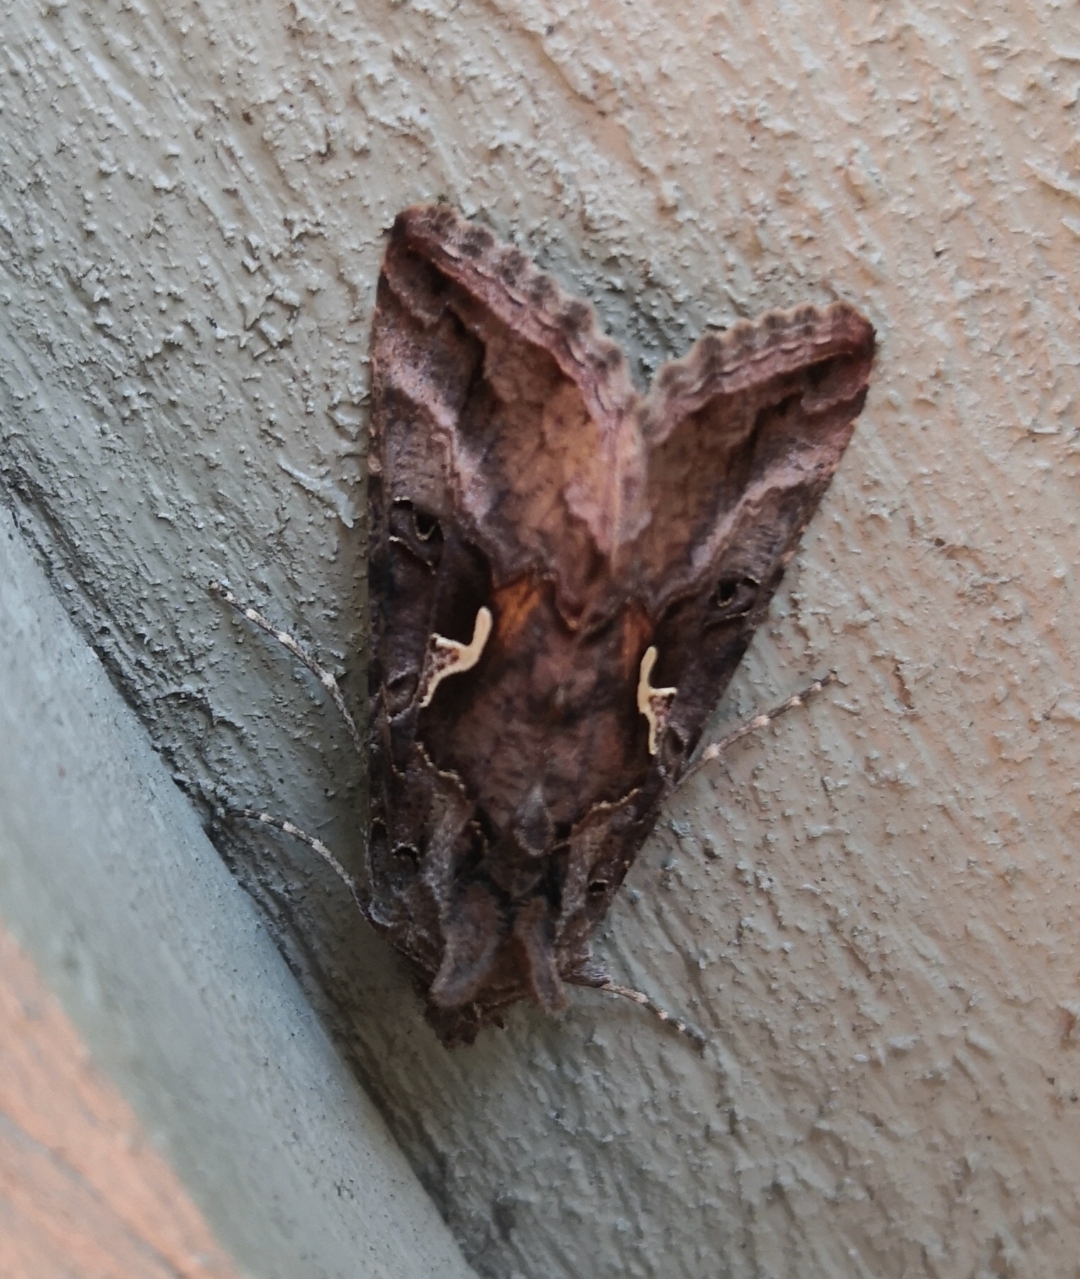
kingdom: Animalia
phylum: Arthropoda
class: Insecta
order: Lepidoptera
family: Noctuidae
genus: Autographa
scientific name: Autographa gamma
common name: Gammaugle
